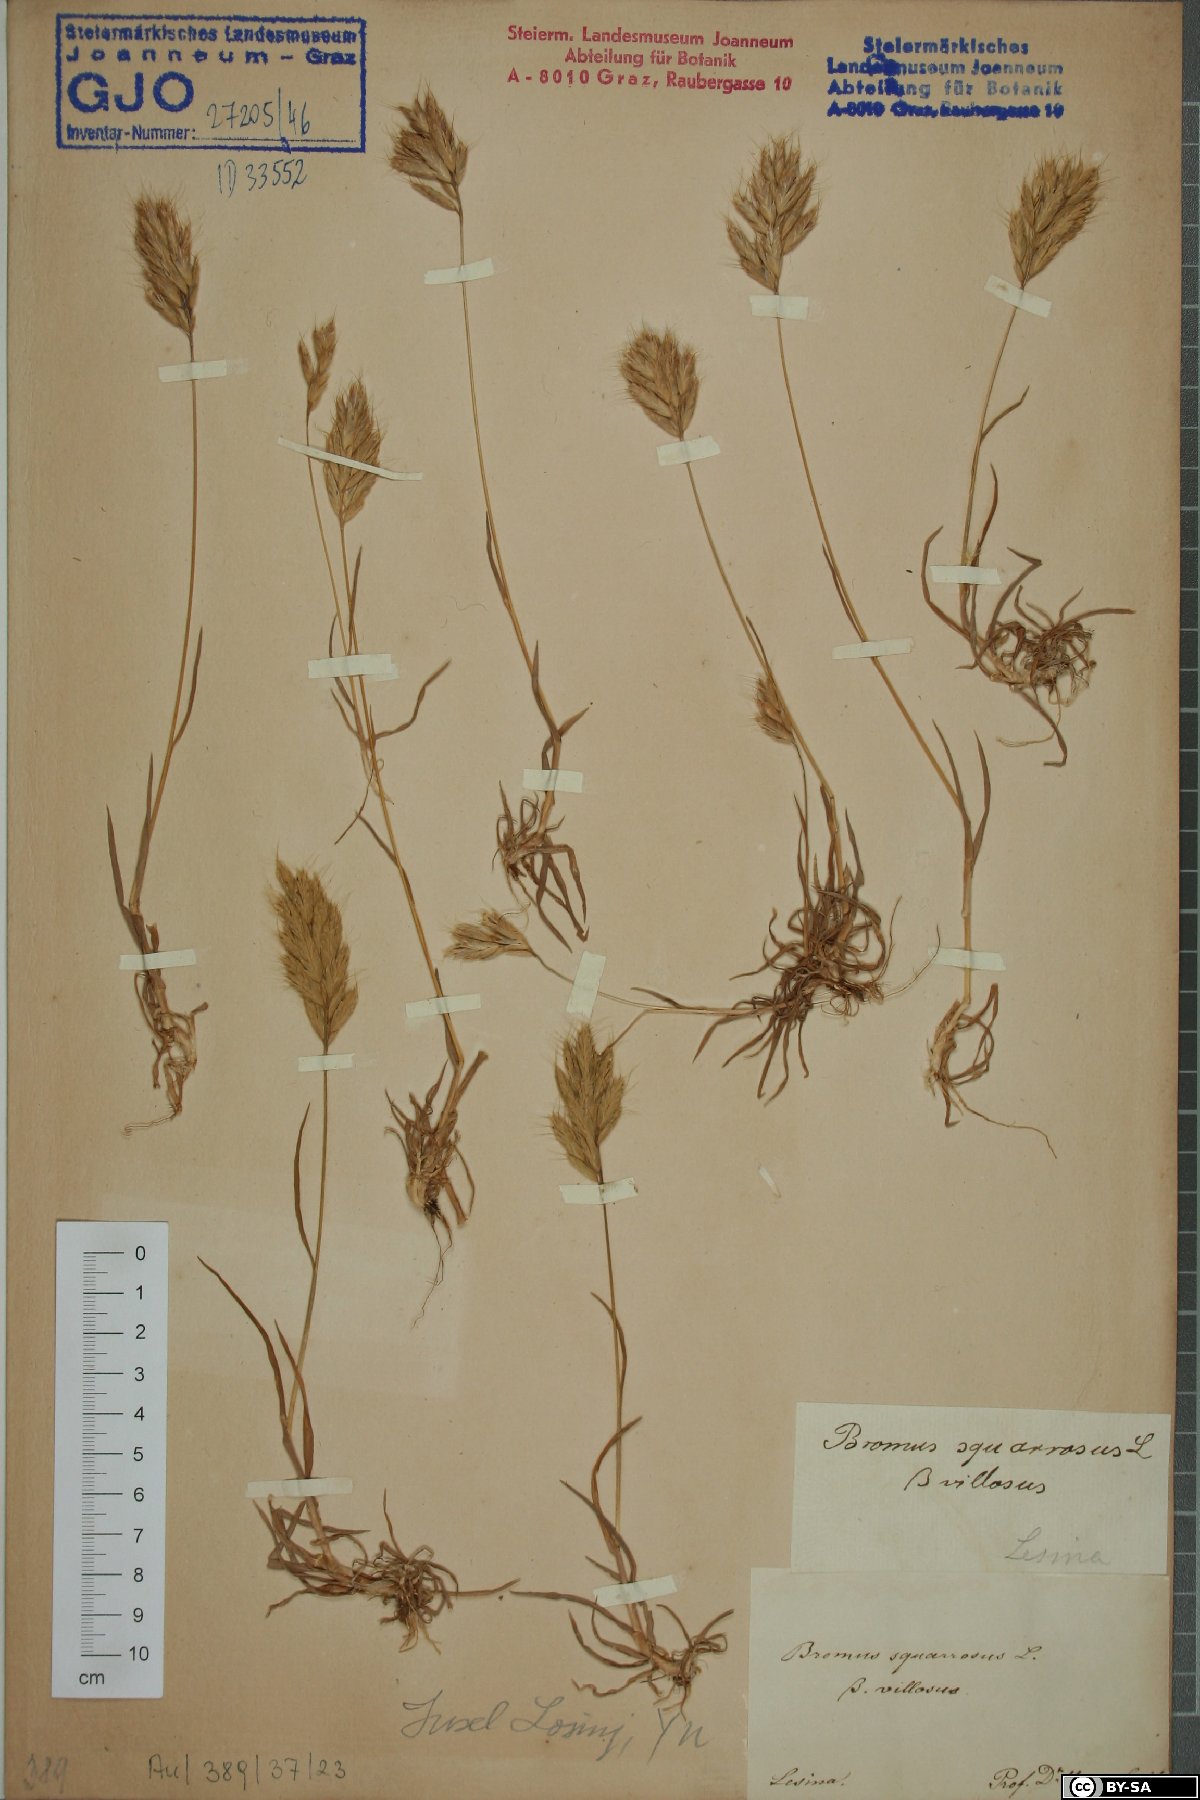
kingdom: Plantae
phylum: Tracheophyta
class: Liliopsida
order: Poales
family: Poaceae
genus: Bromus
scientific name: Bromus squarrosus
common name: Corn brome
